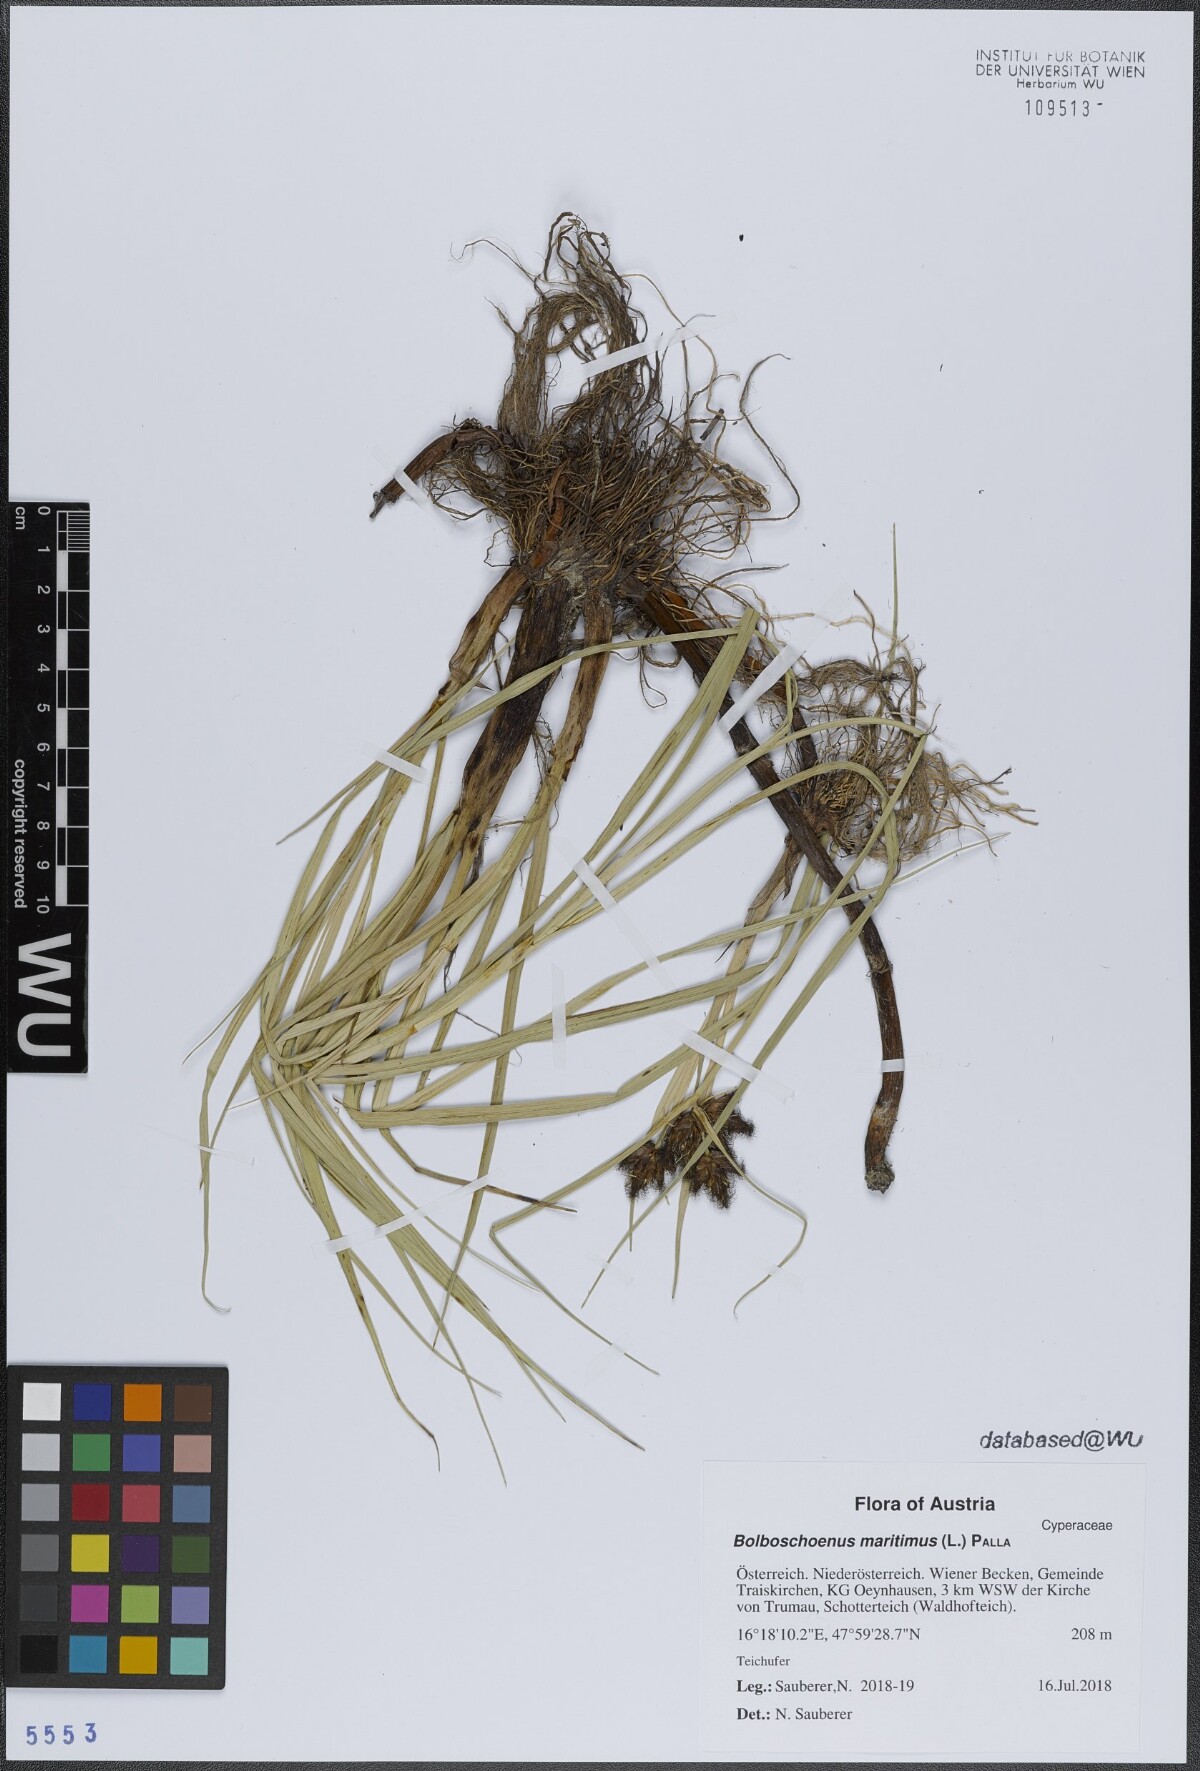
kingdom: Plantae
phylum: Tracheophyta
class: Liliopsida
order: Poales
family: Cyperaceae
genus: Bolboschoenus
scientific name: Bolboschoenus maritimus
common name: Sea club-rush
